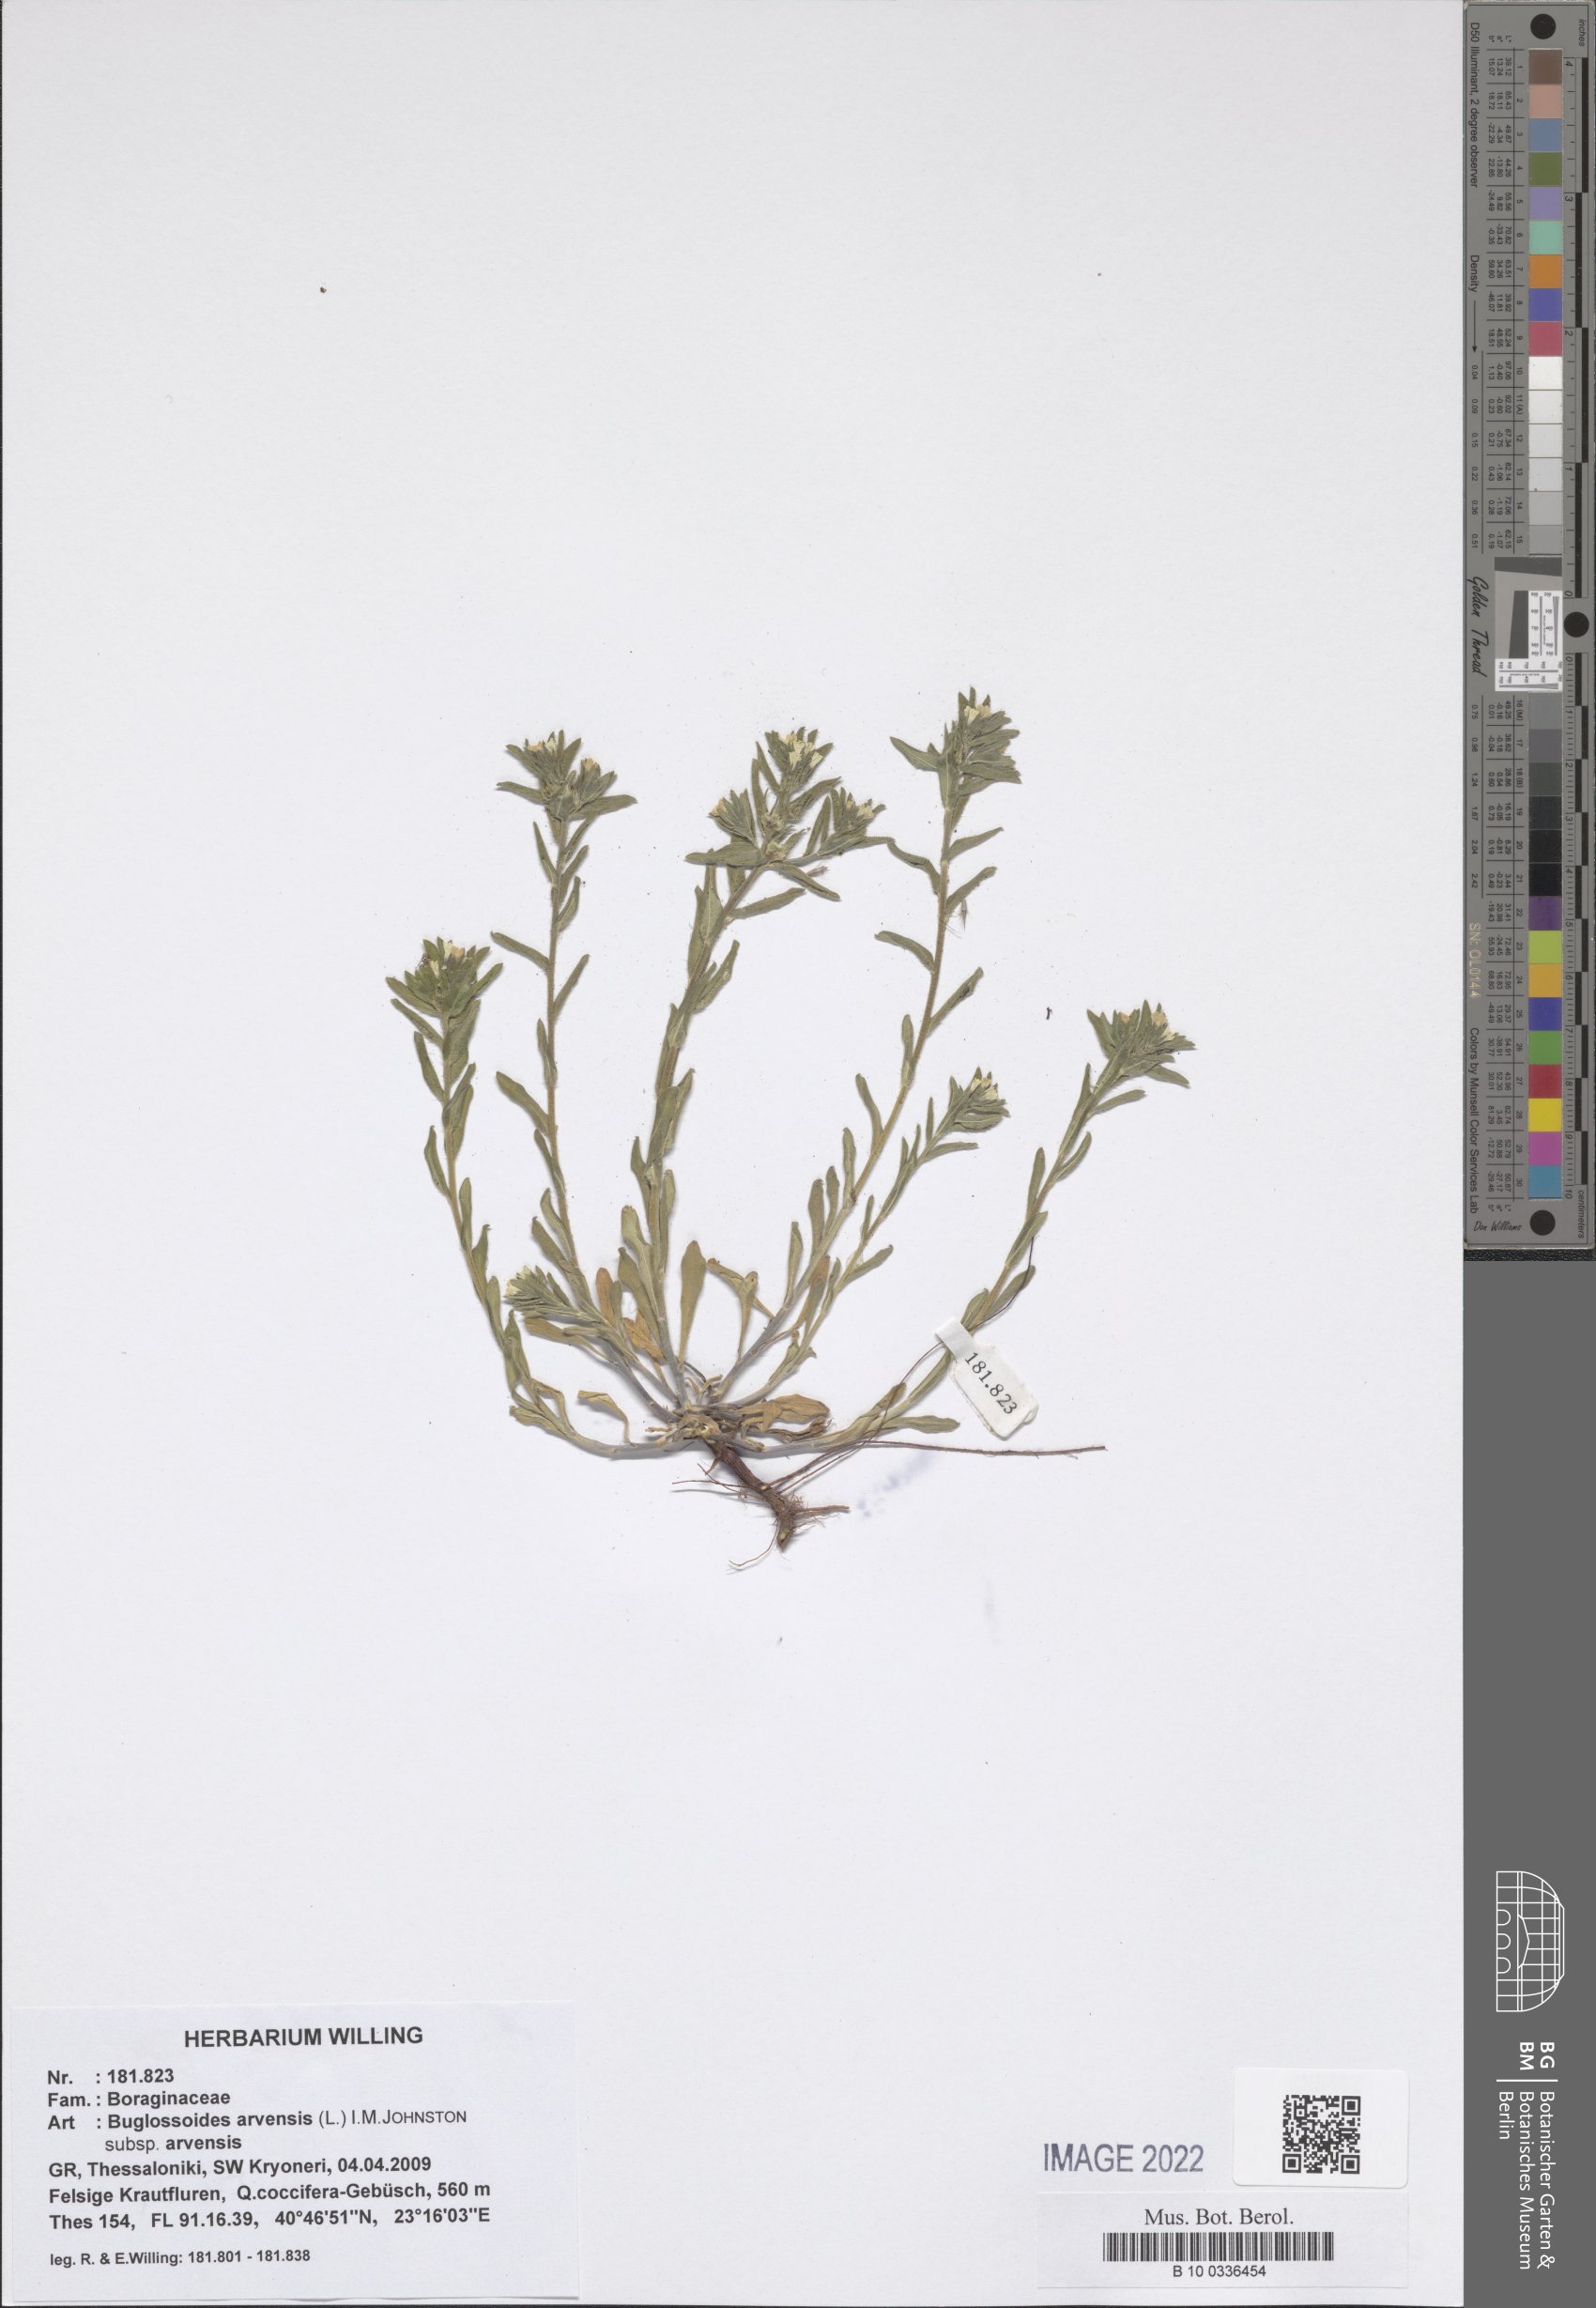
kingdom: Plantae
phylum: Tracheophyta
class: Magnoliopsida
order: Boraginales
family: Boraginaceae
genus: Buglossoides
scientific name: Buglossoides arvensis
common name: Corn gromwell
